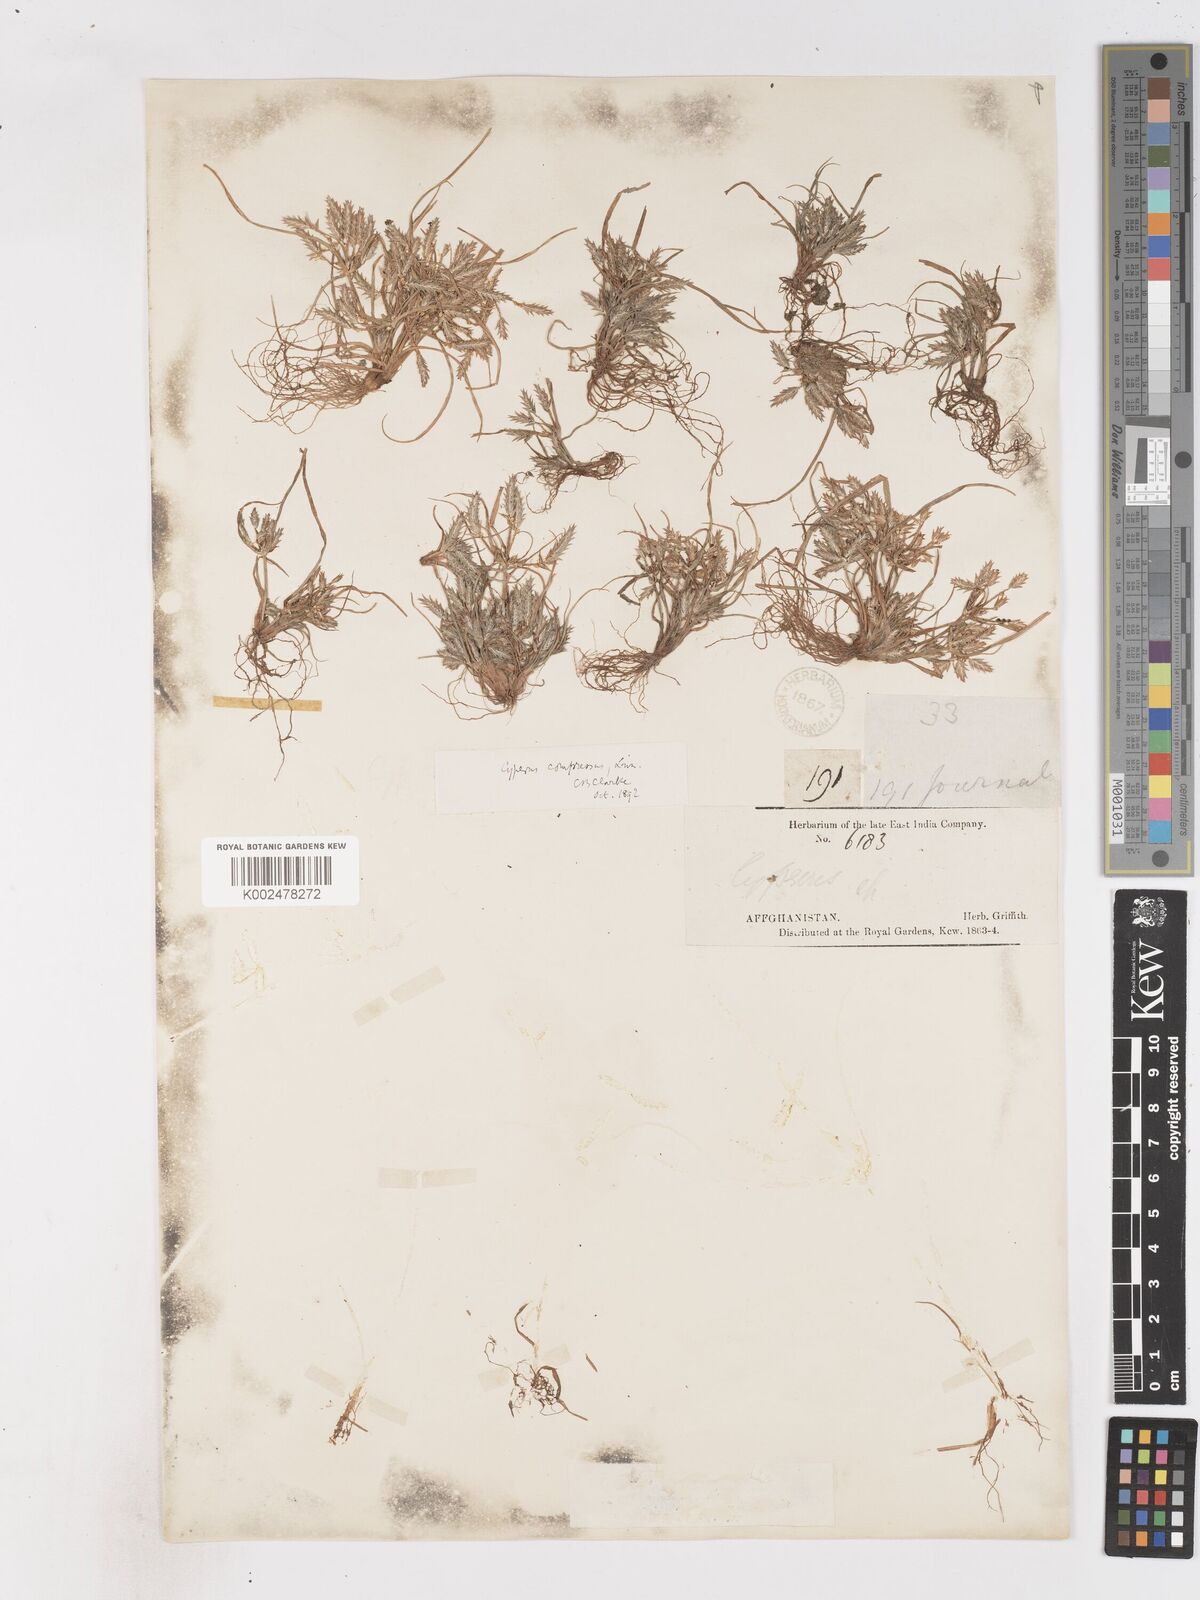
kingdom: Plantae
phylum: Tracheophyta
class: Liliopsida
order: Poales
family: Cyperaceae
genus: Cyperus
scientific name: Cyperus compressus
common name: Poorland flatsedge
